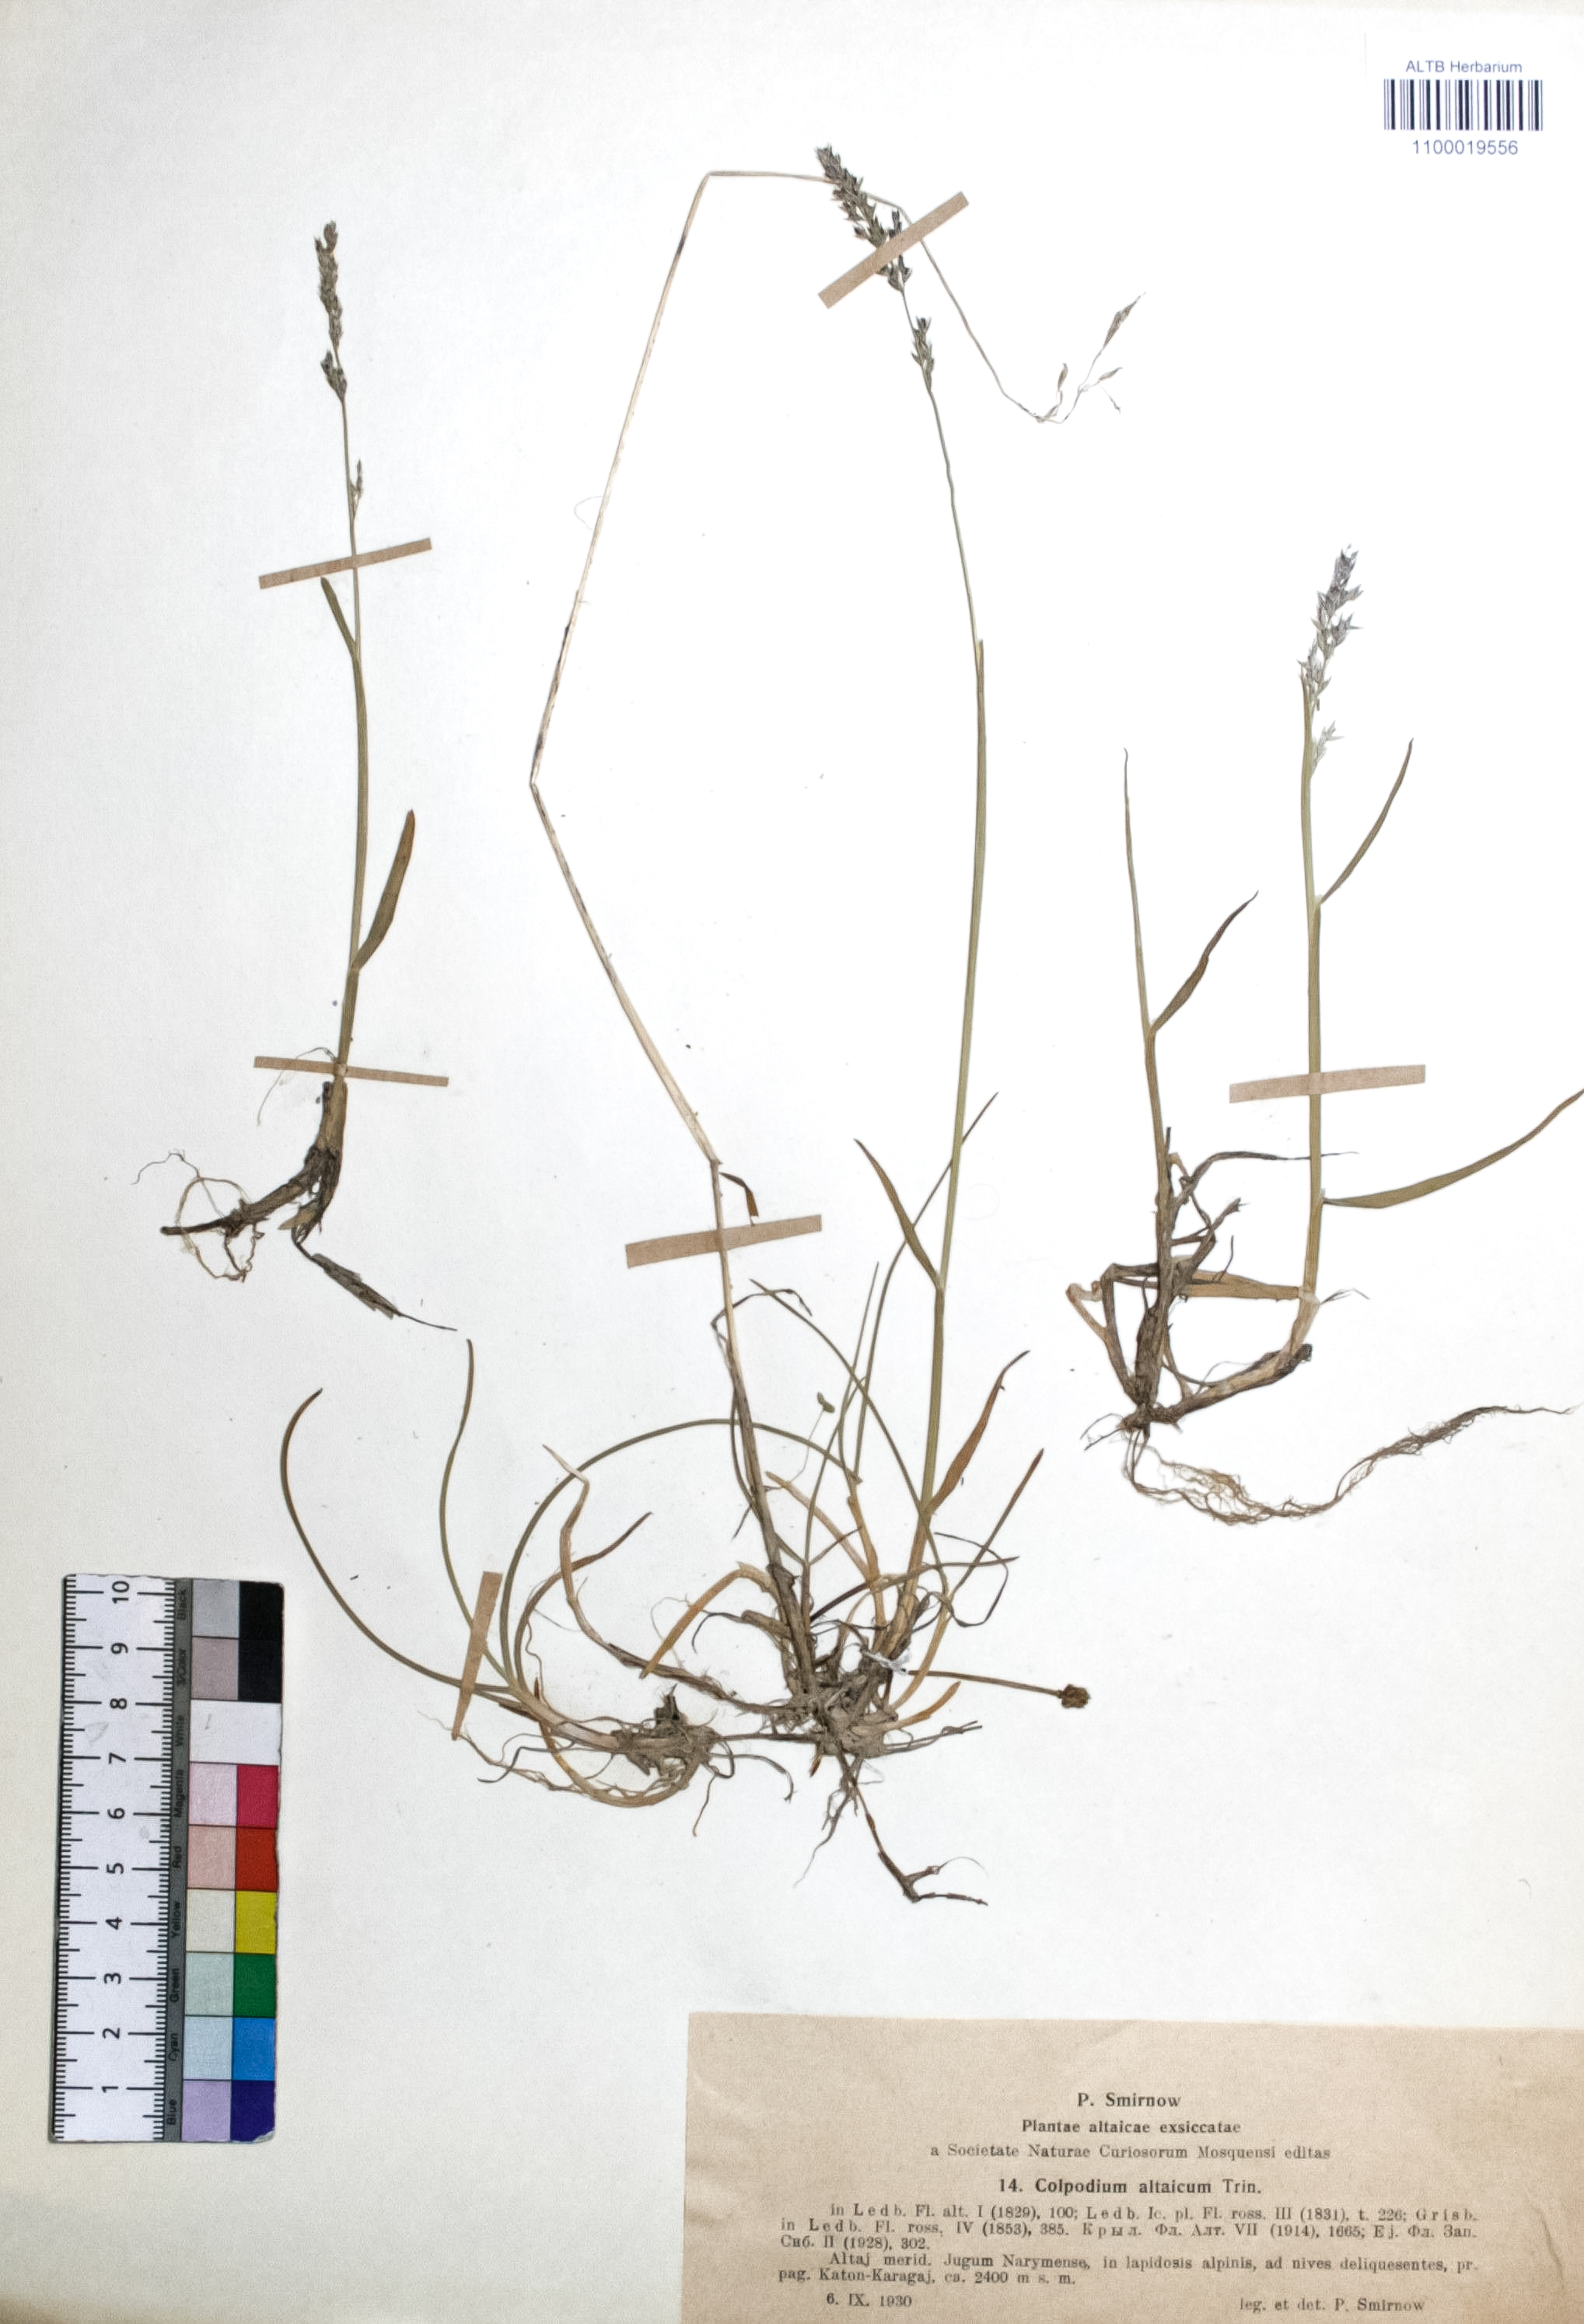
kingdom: Plantae
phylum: Tracheophyta
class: Liliopsida
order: Poales
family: Poaceae
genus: Paracolpodium
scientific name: Paracolpodium altaicum
